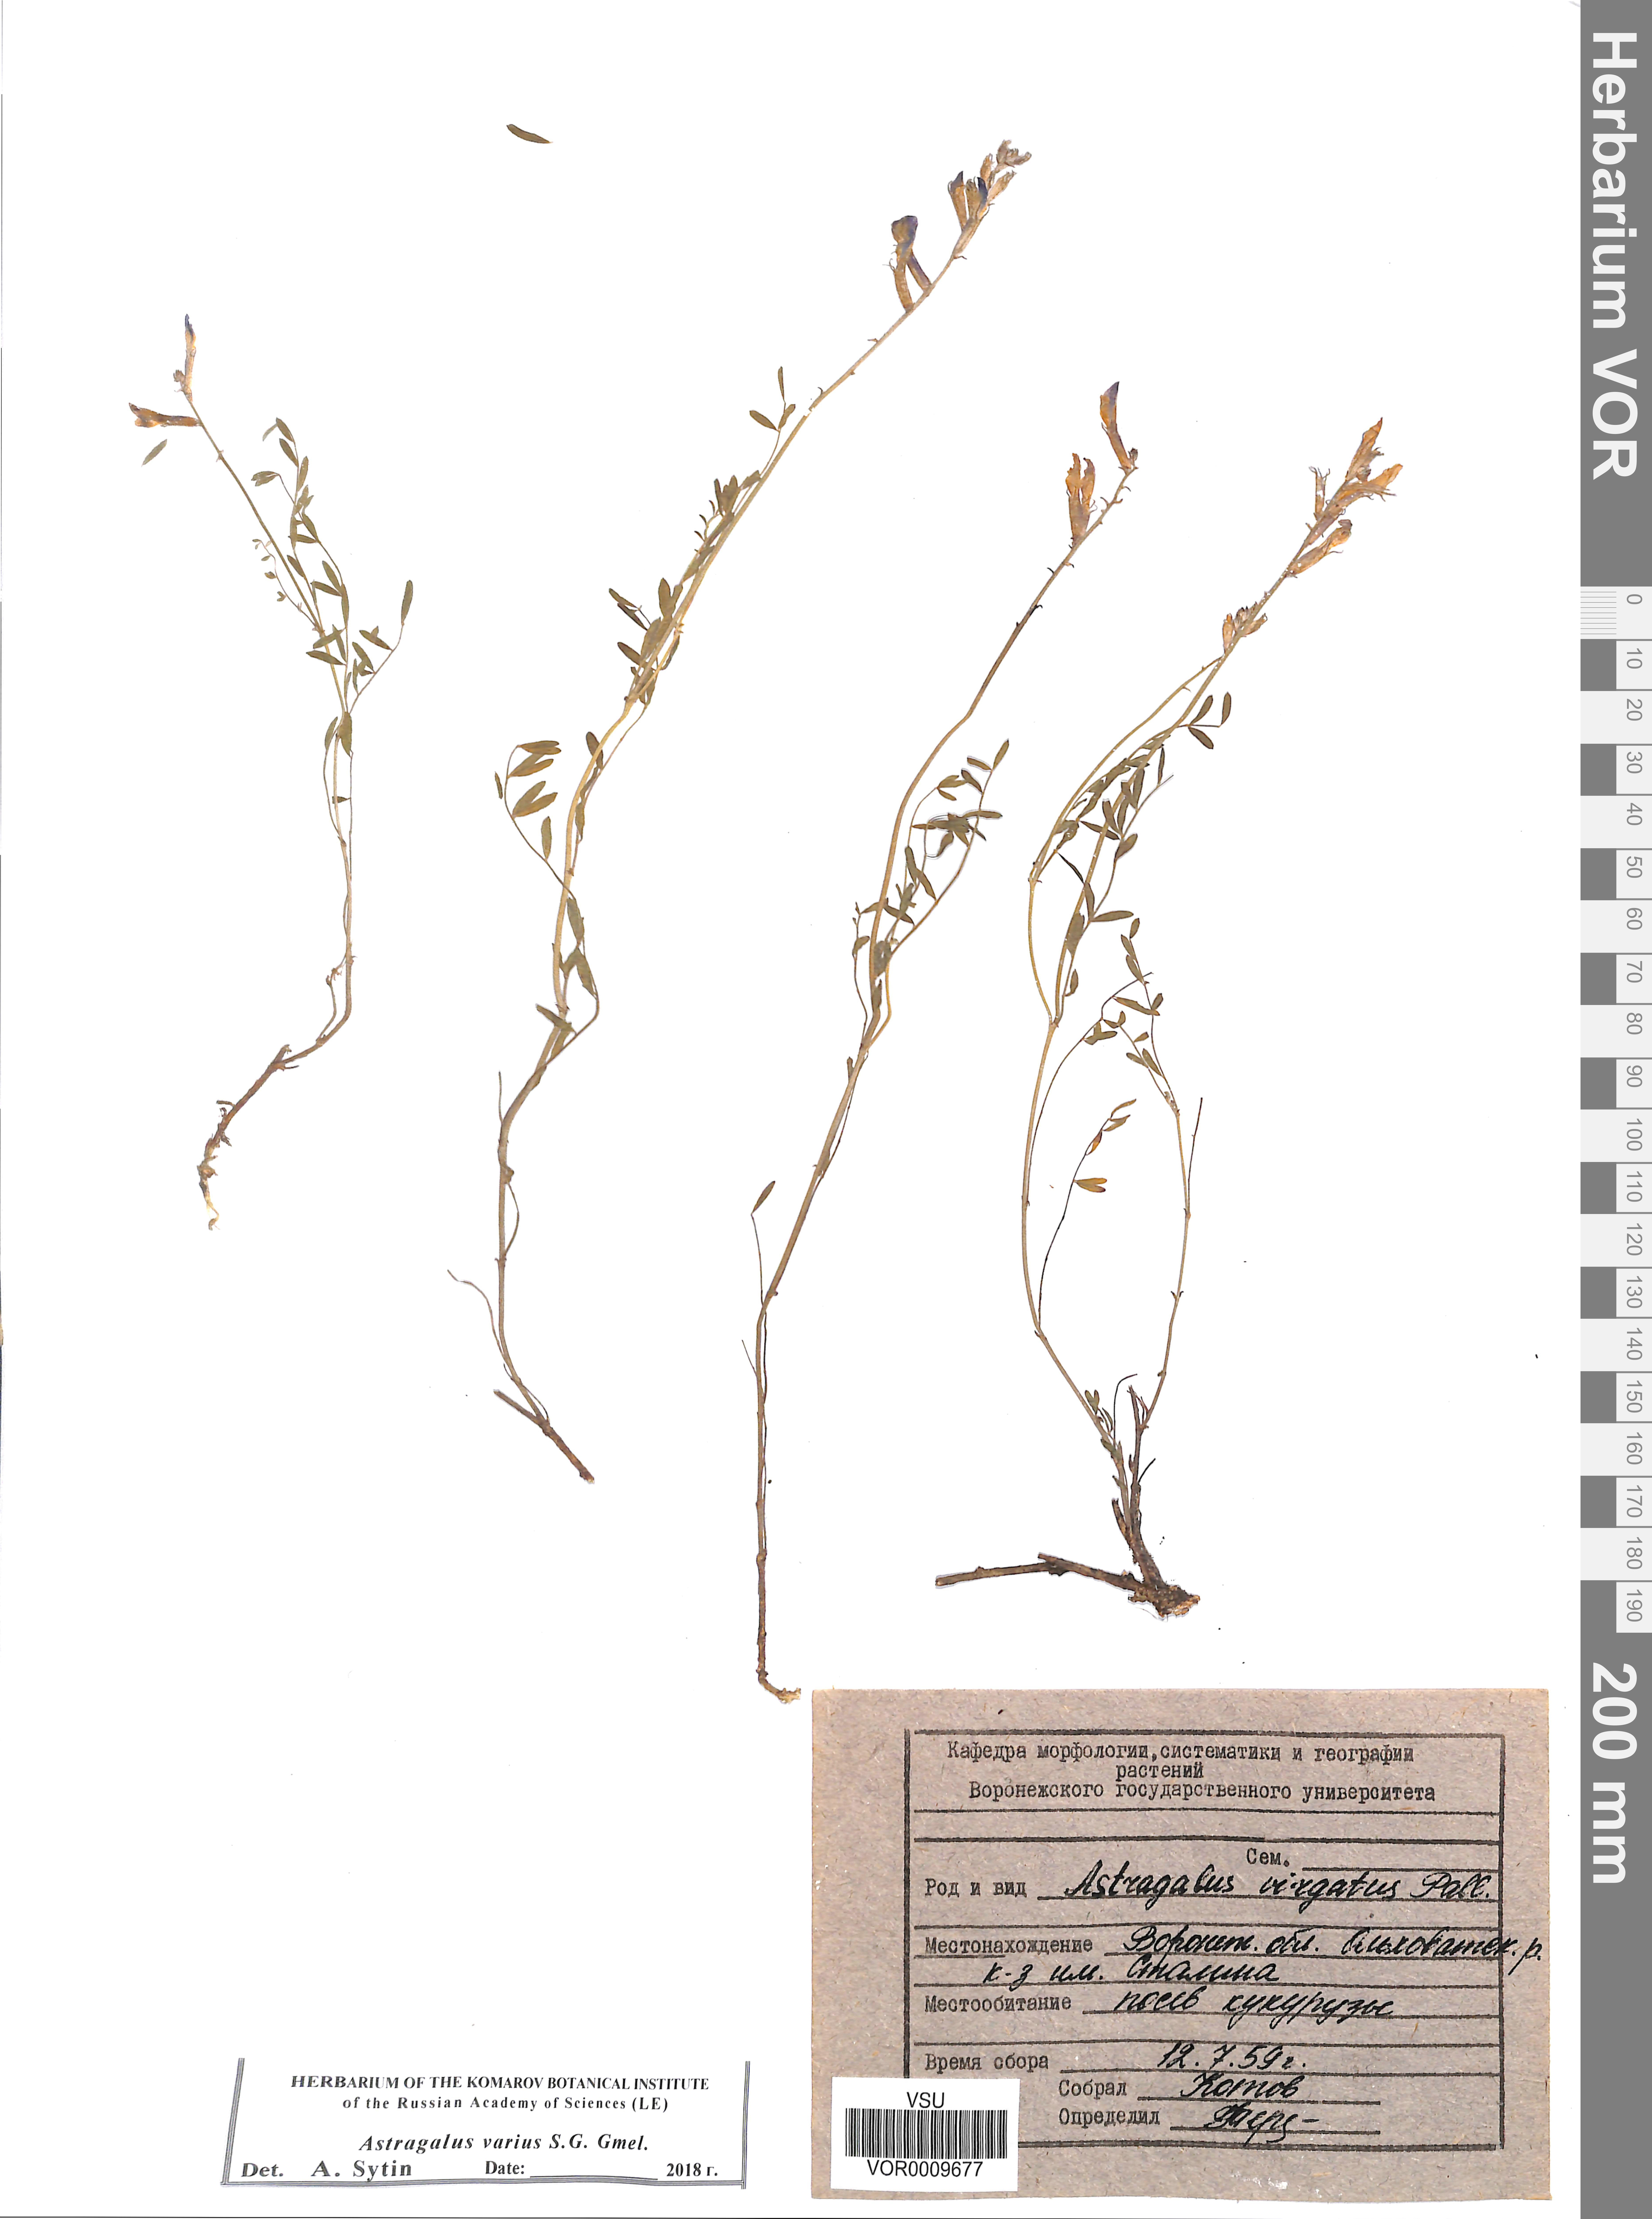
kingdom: Plantae
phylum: Tracheophyta
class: Magnoliopsida
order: Fabales
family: Fabaceae
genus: Astragalus
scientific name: Astragalus varius
